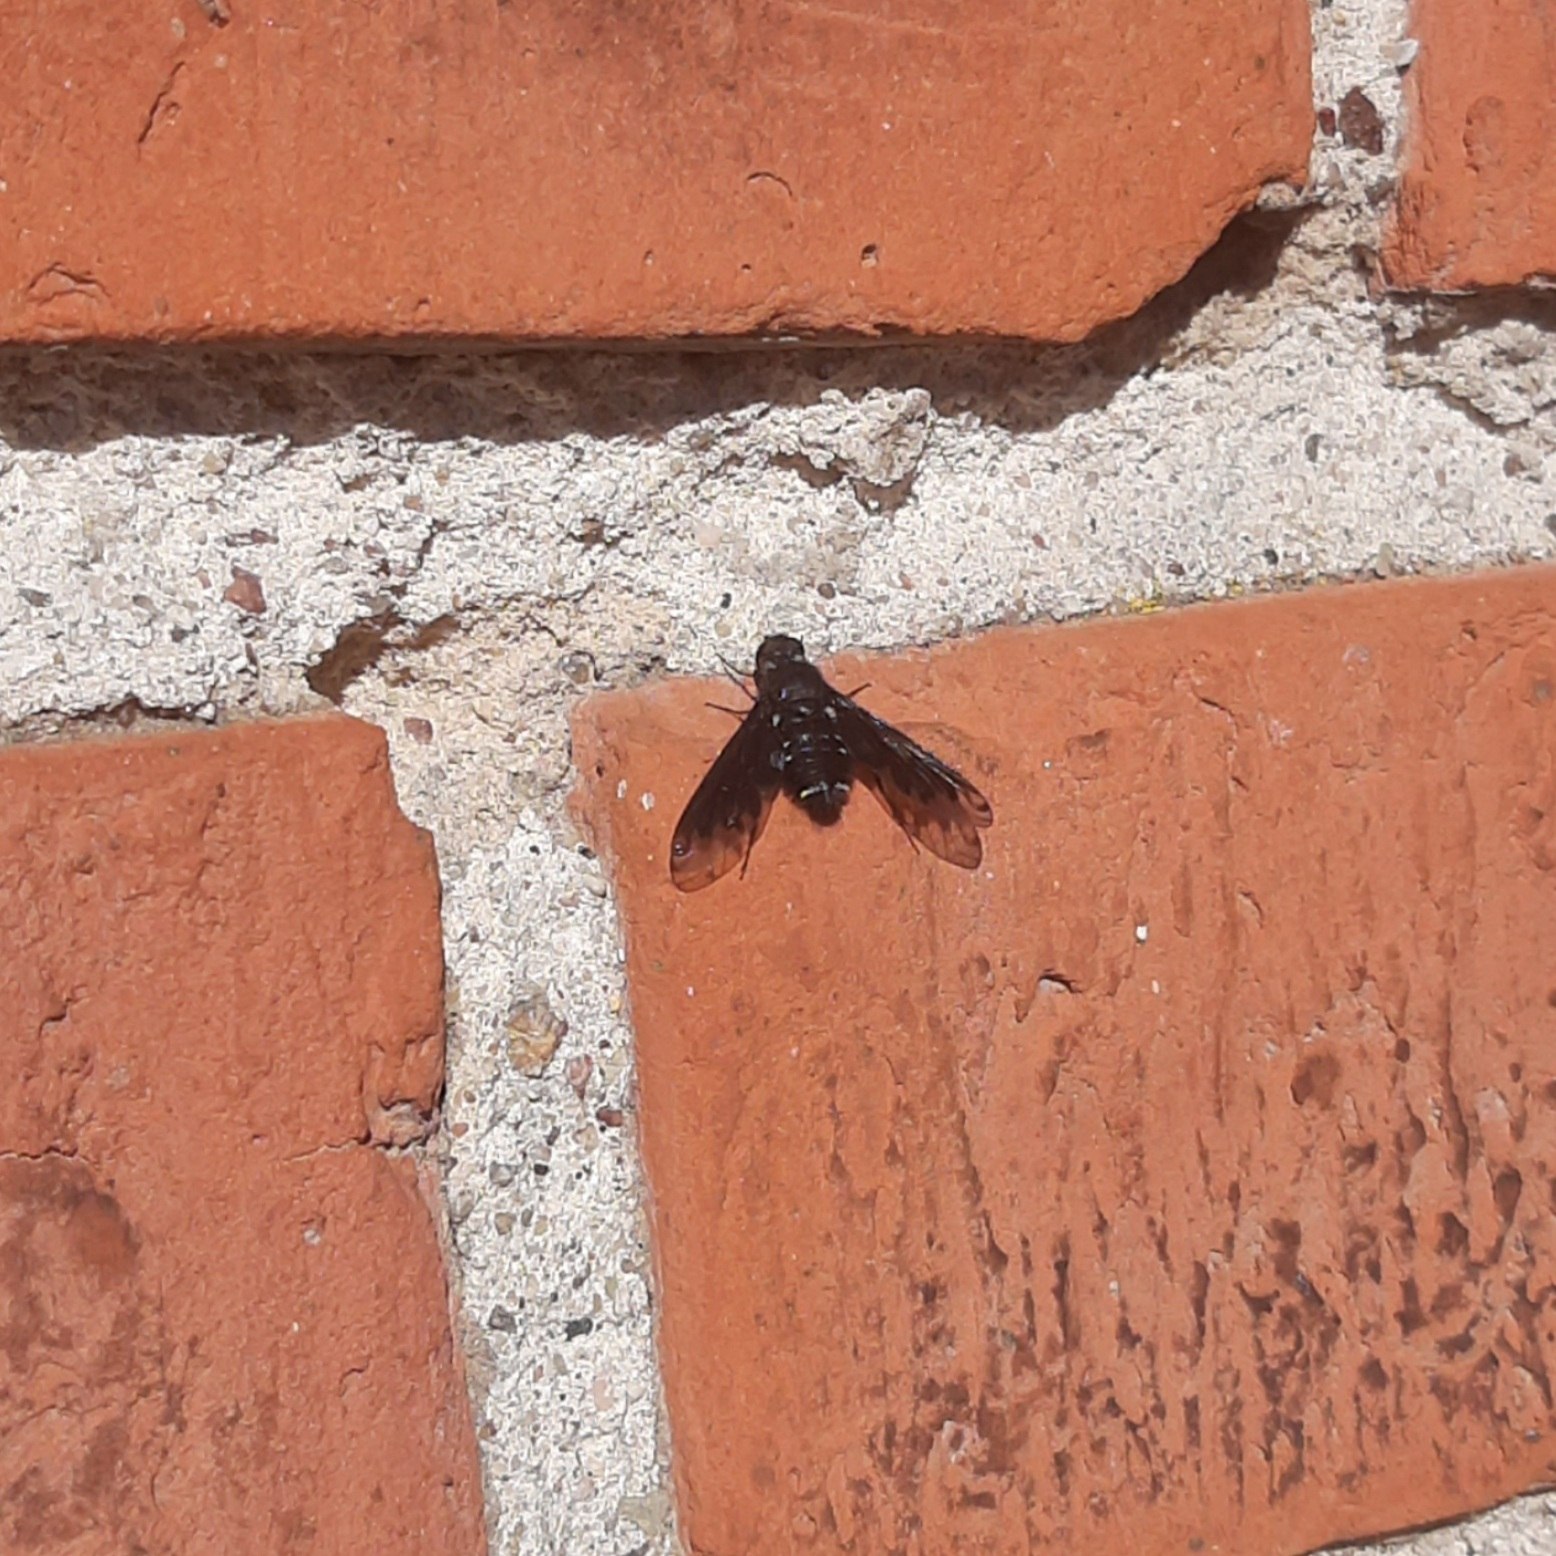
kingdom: Animalia
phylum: Arthropoda
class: Insecta
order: Diptera
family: Bombyliidae
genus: Anthrax
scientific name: Anthrax anthrax
